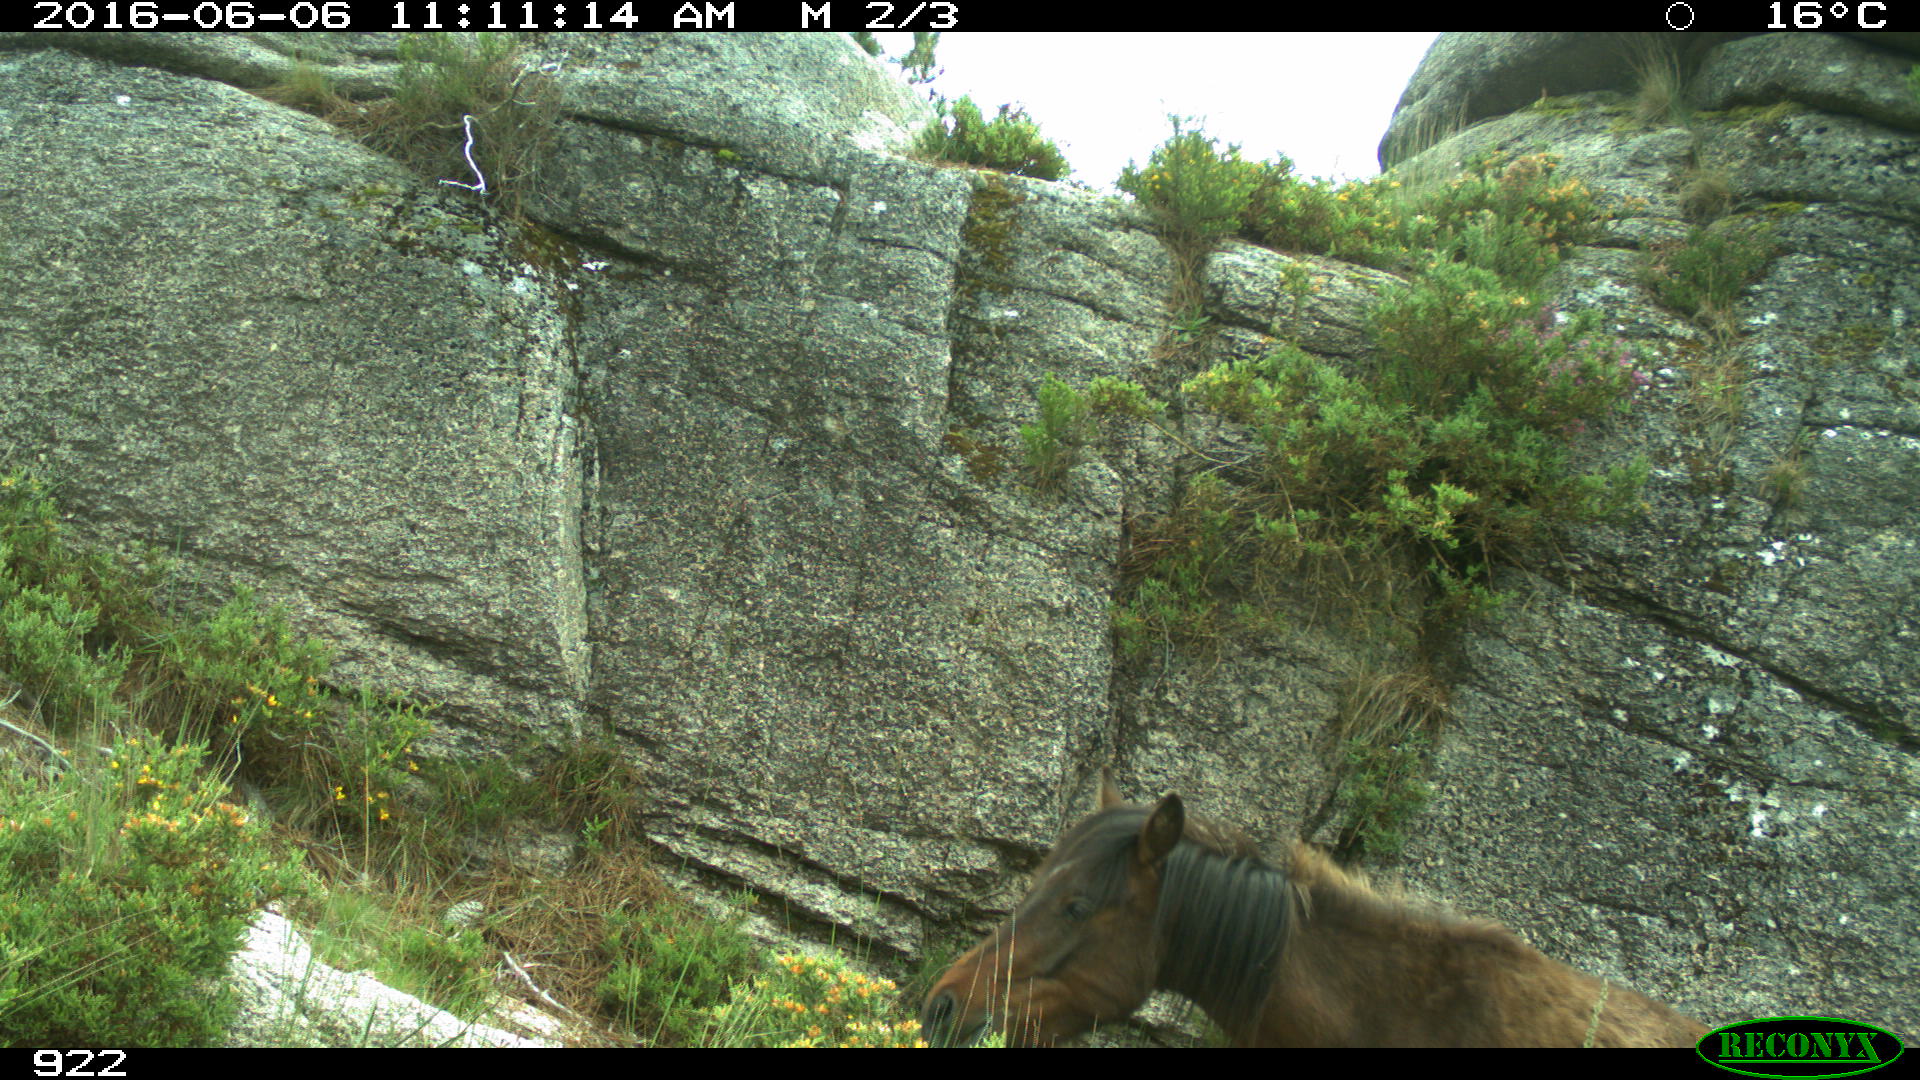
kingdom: Animalia
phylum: Chordata
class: Mammalia
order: Perissodactyla
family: Equidae
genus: Equus
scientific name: Equus caballus
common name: Horse
